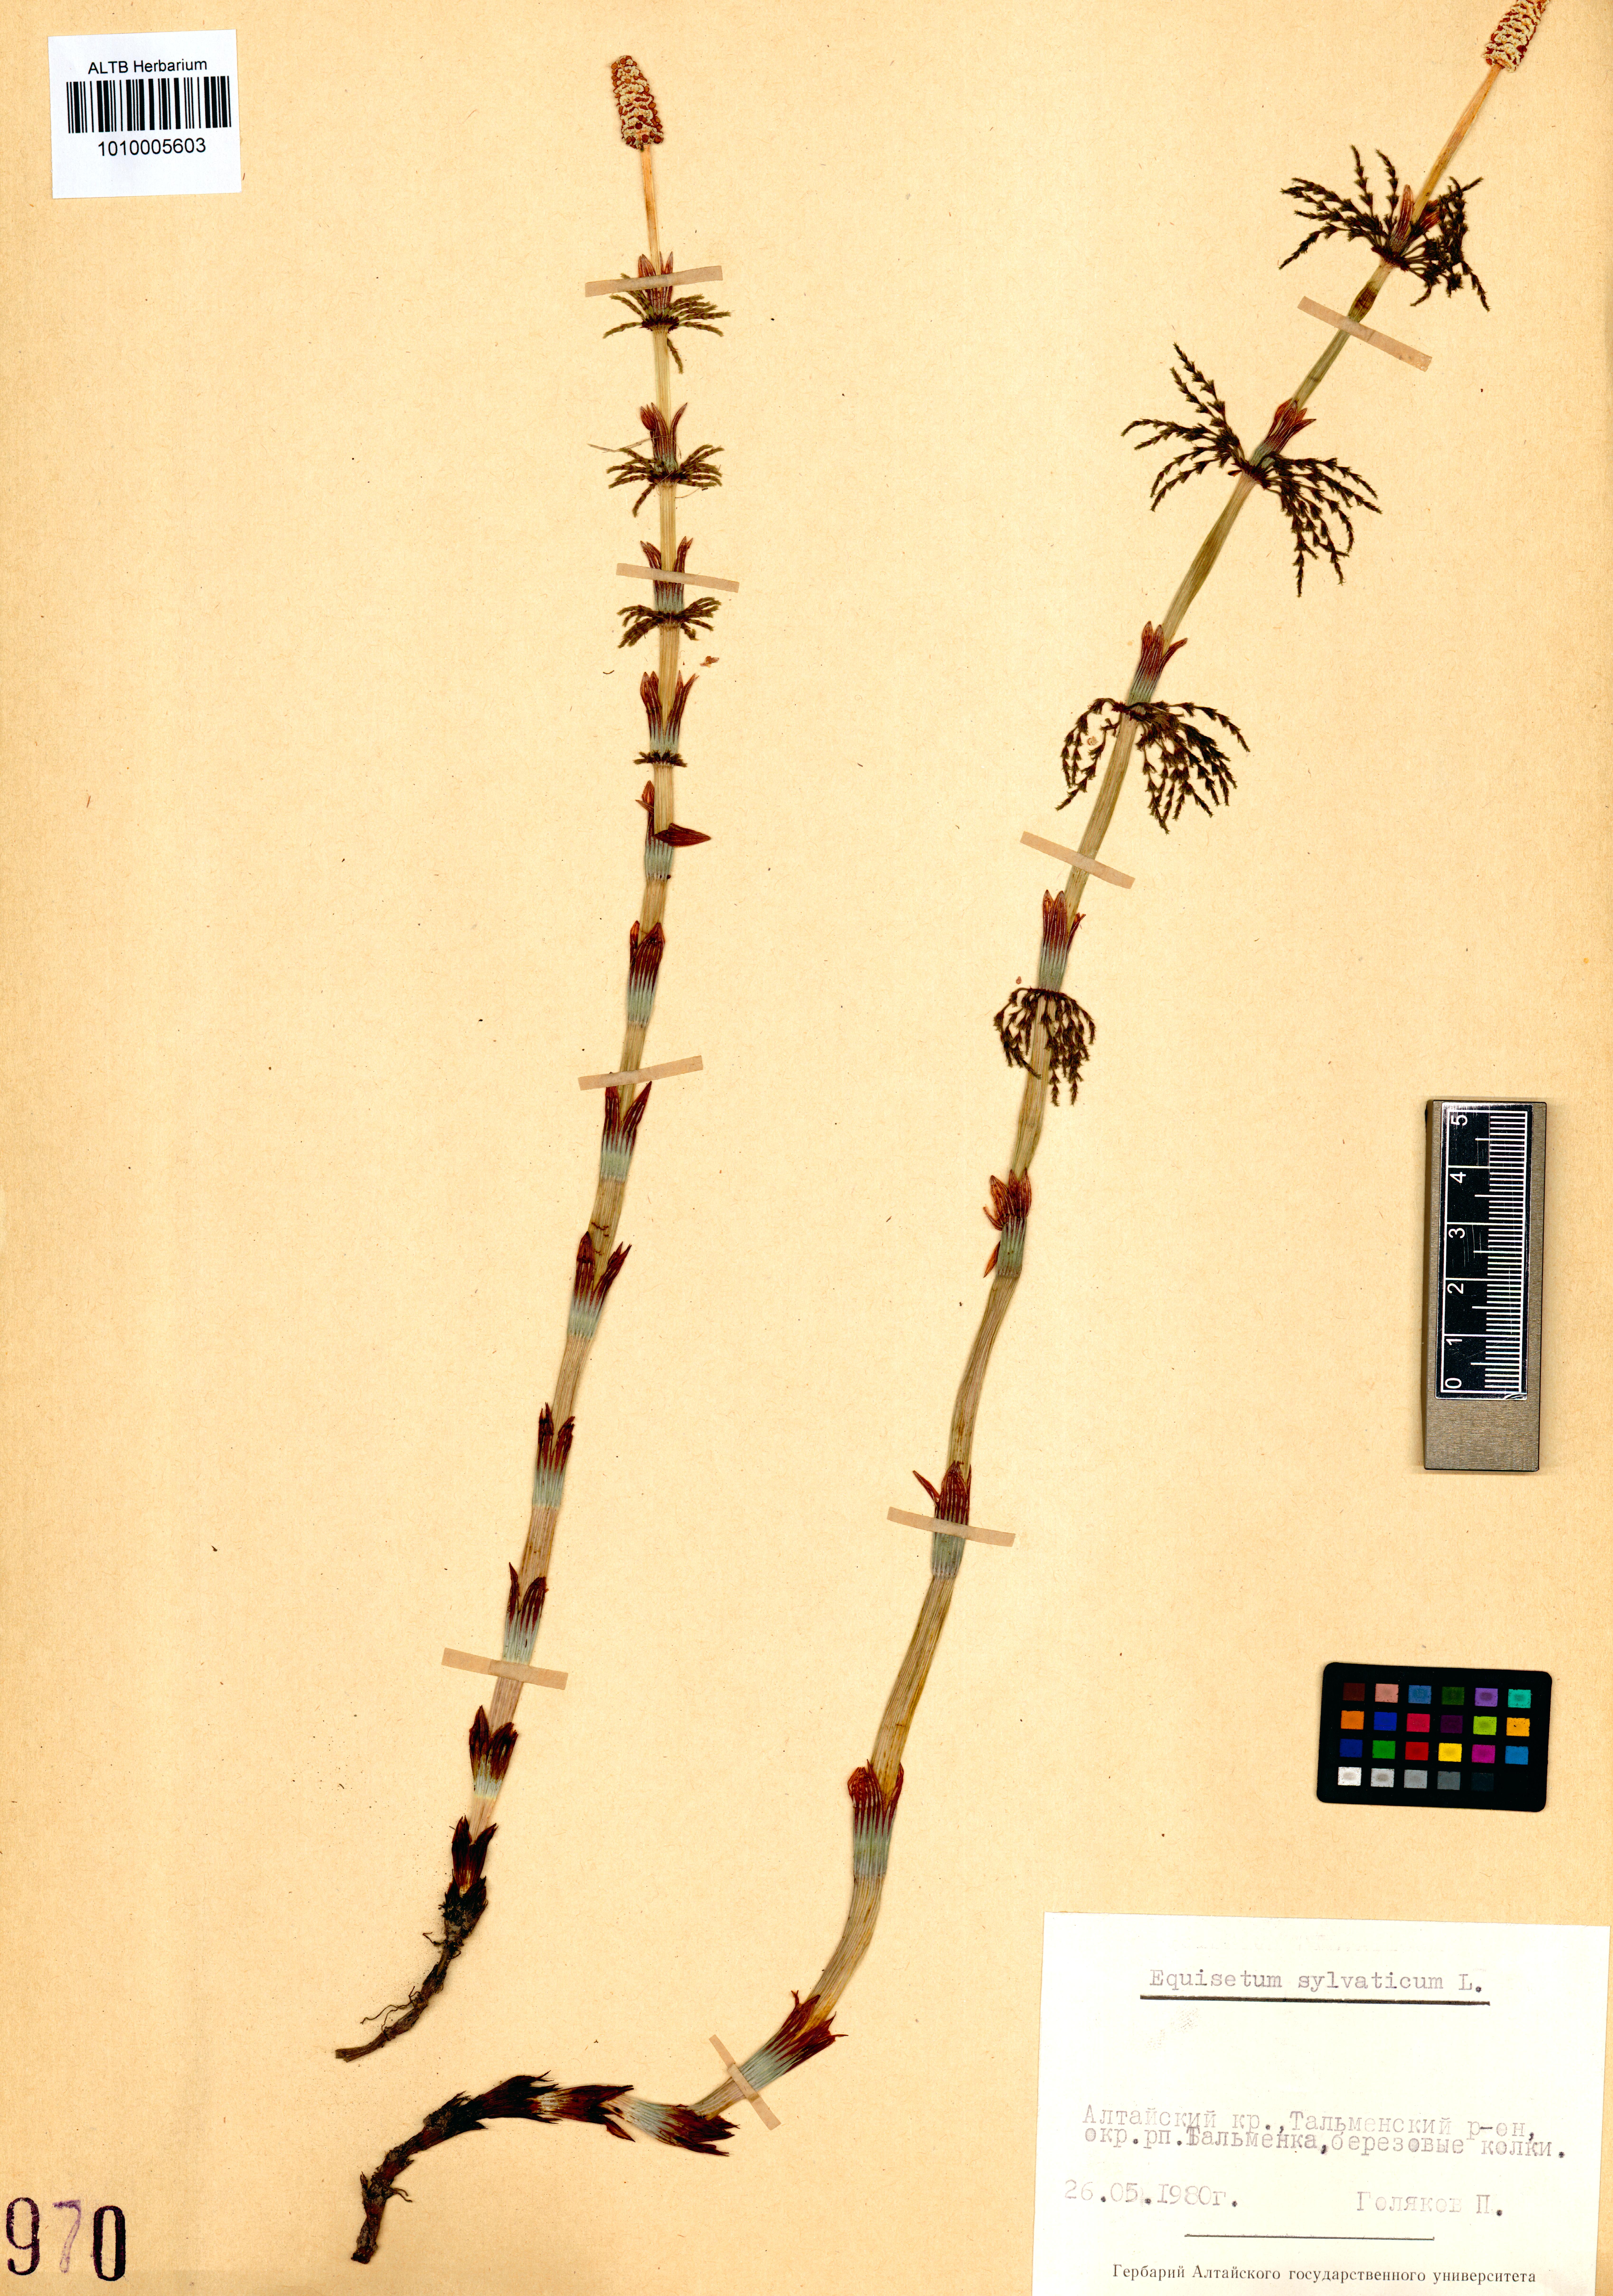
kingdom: Plantae
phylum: Tracheophyta
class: Polypodiopsida
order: Equisetales
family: Equisetaceae
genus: Equisetum
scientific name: Equisetum sylvaticum
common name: Wood horsetail
